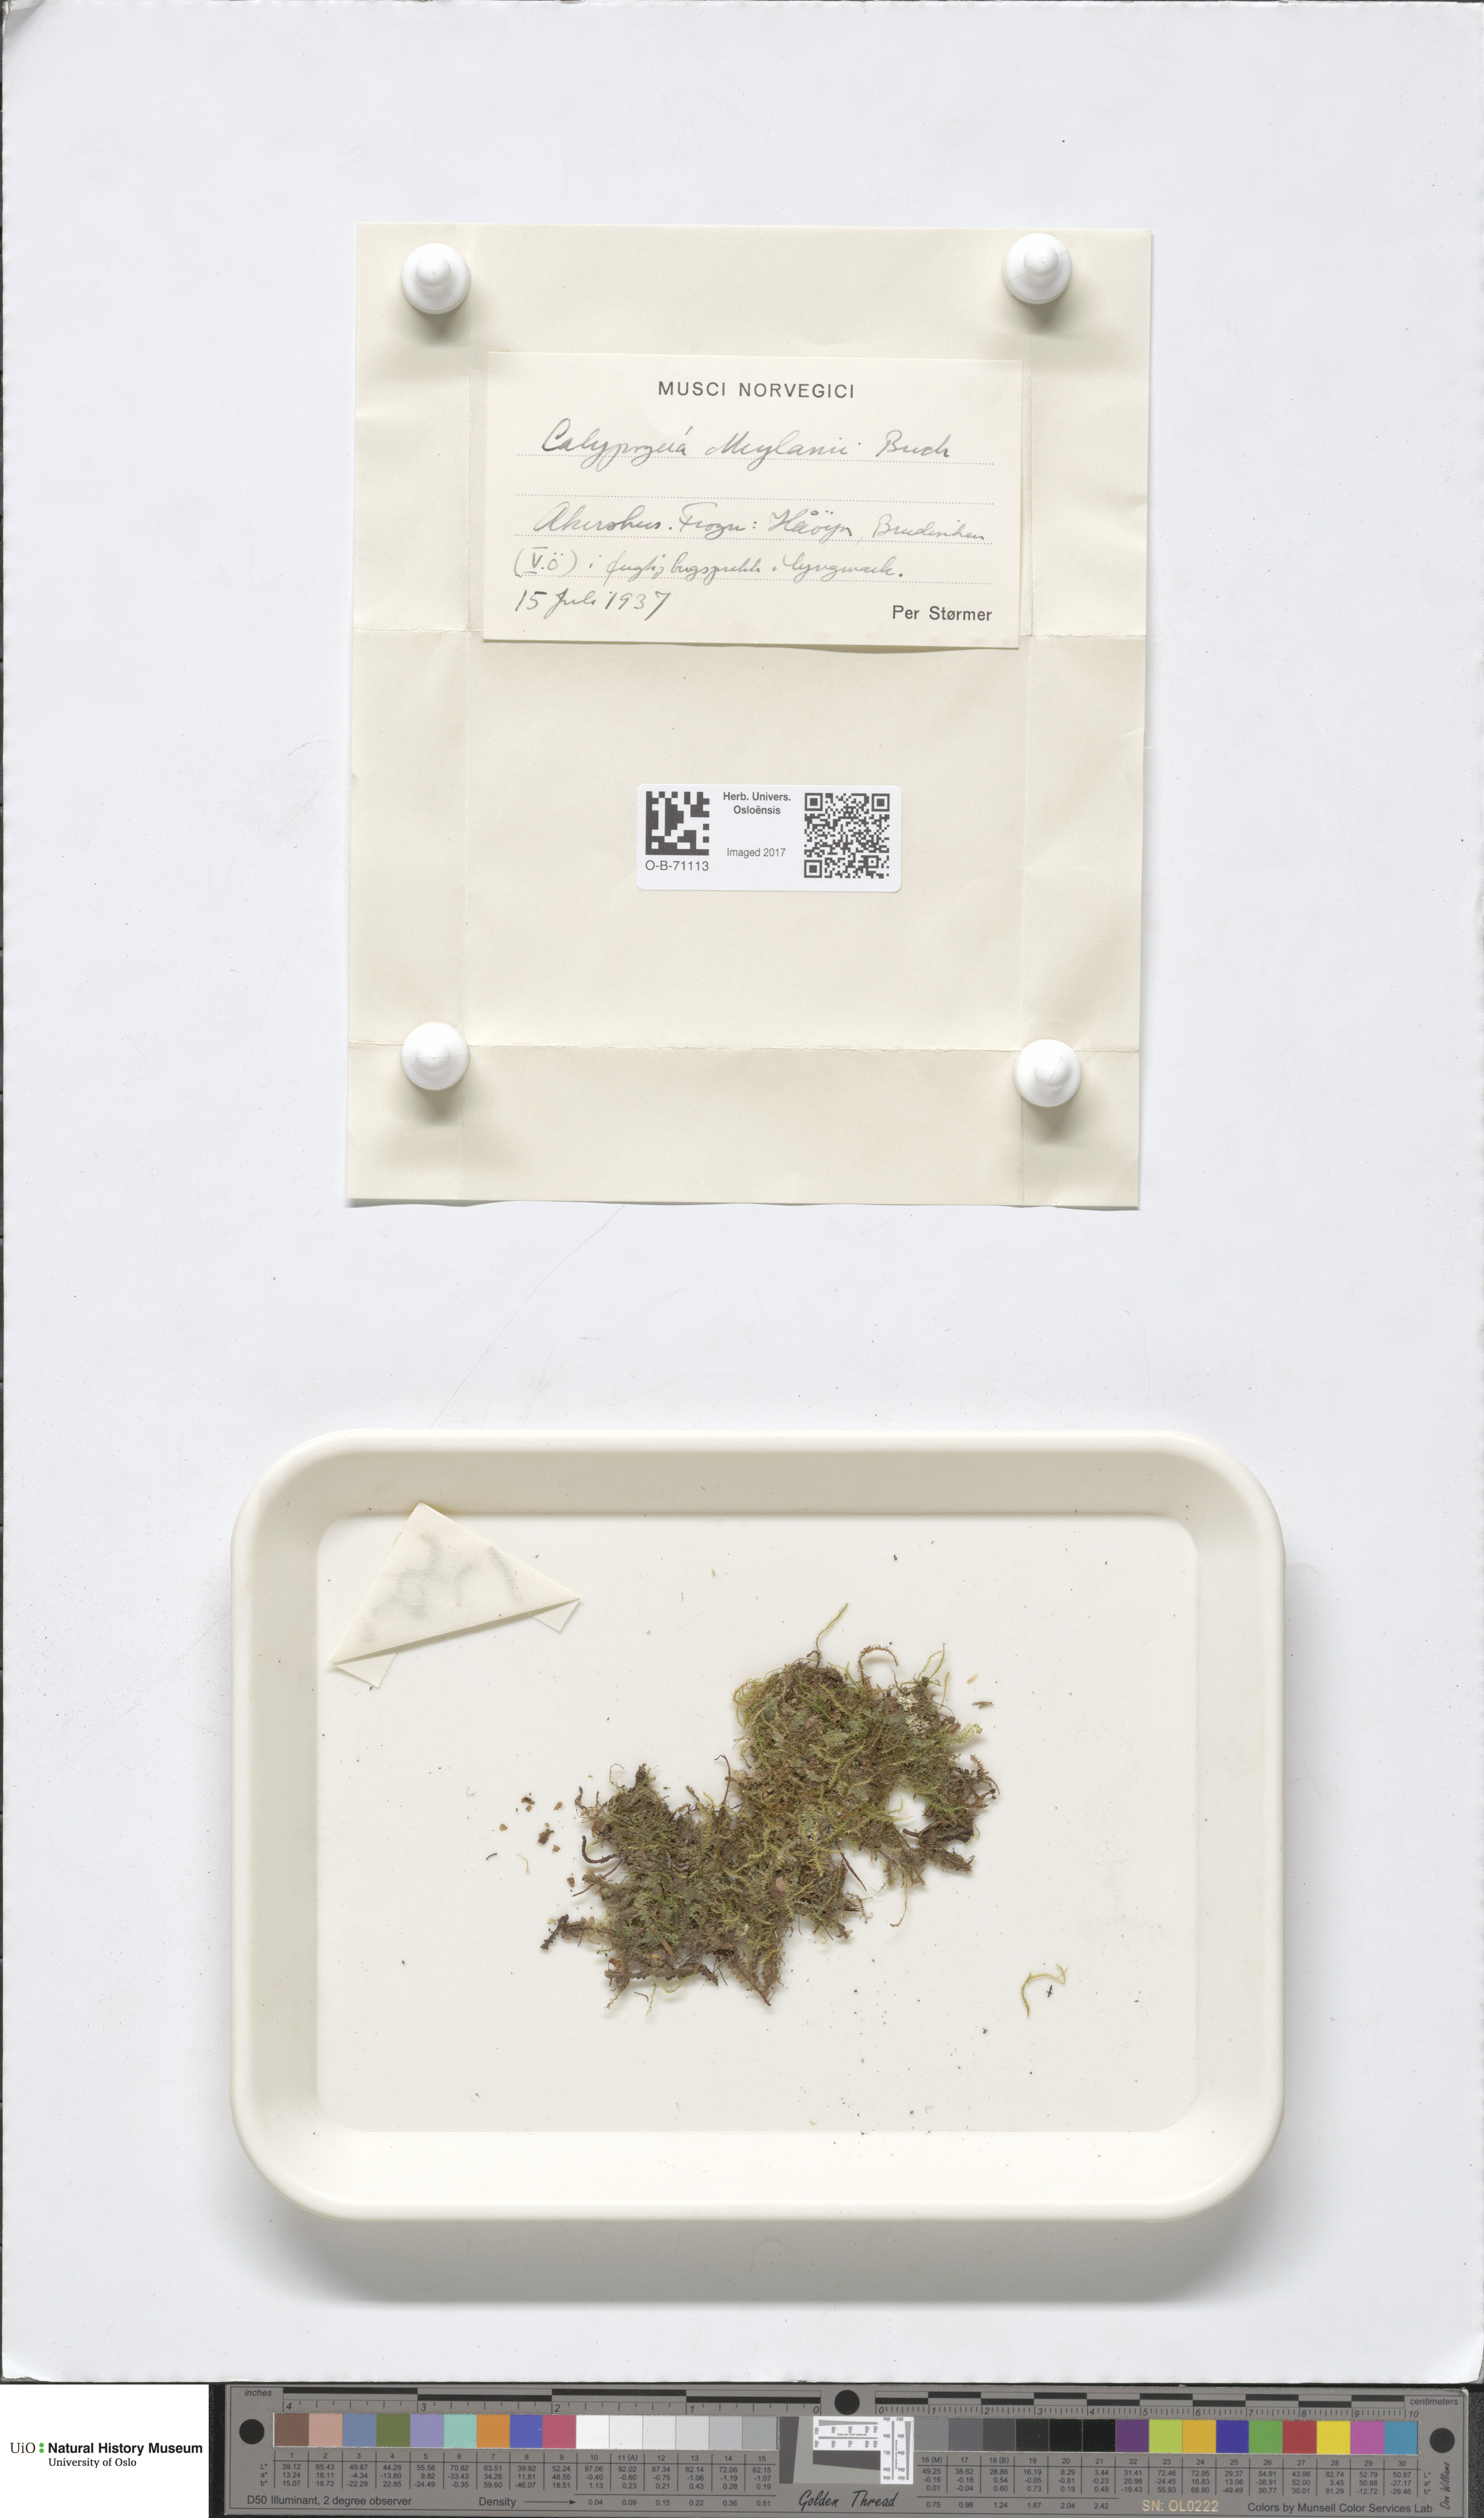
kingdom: Plantae
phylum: Marchantiophyta
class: Jungermanniopsida
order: Jungermanniales
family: Calypogeiaceae
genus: Calypogeia
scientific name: Calypogeia integristipula
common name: Meylan s pouchwort
